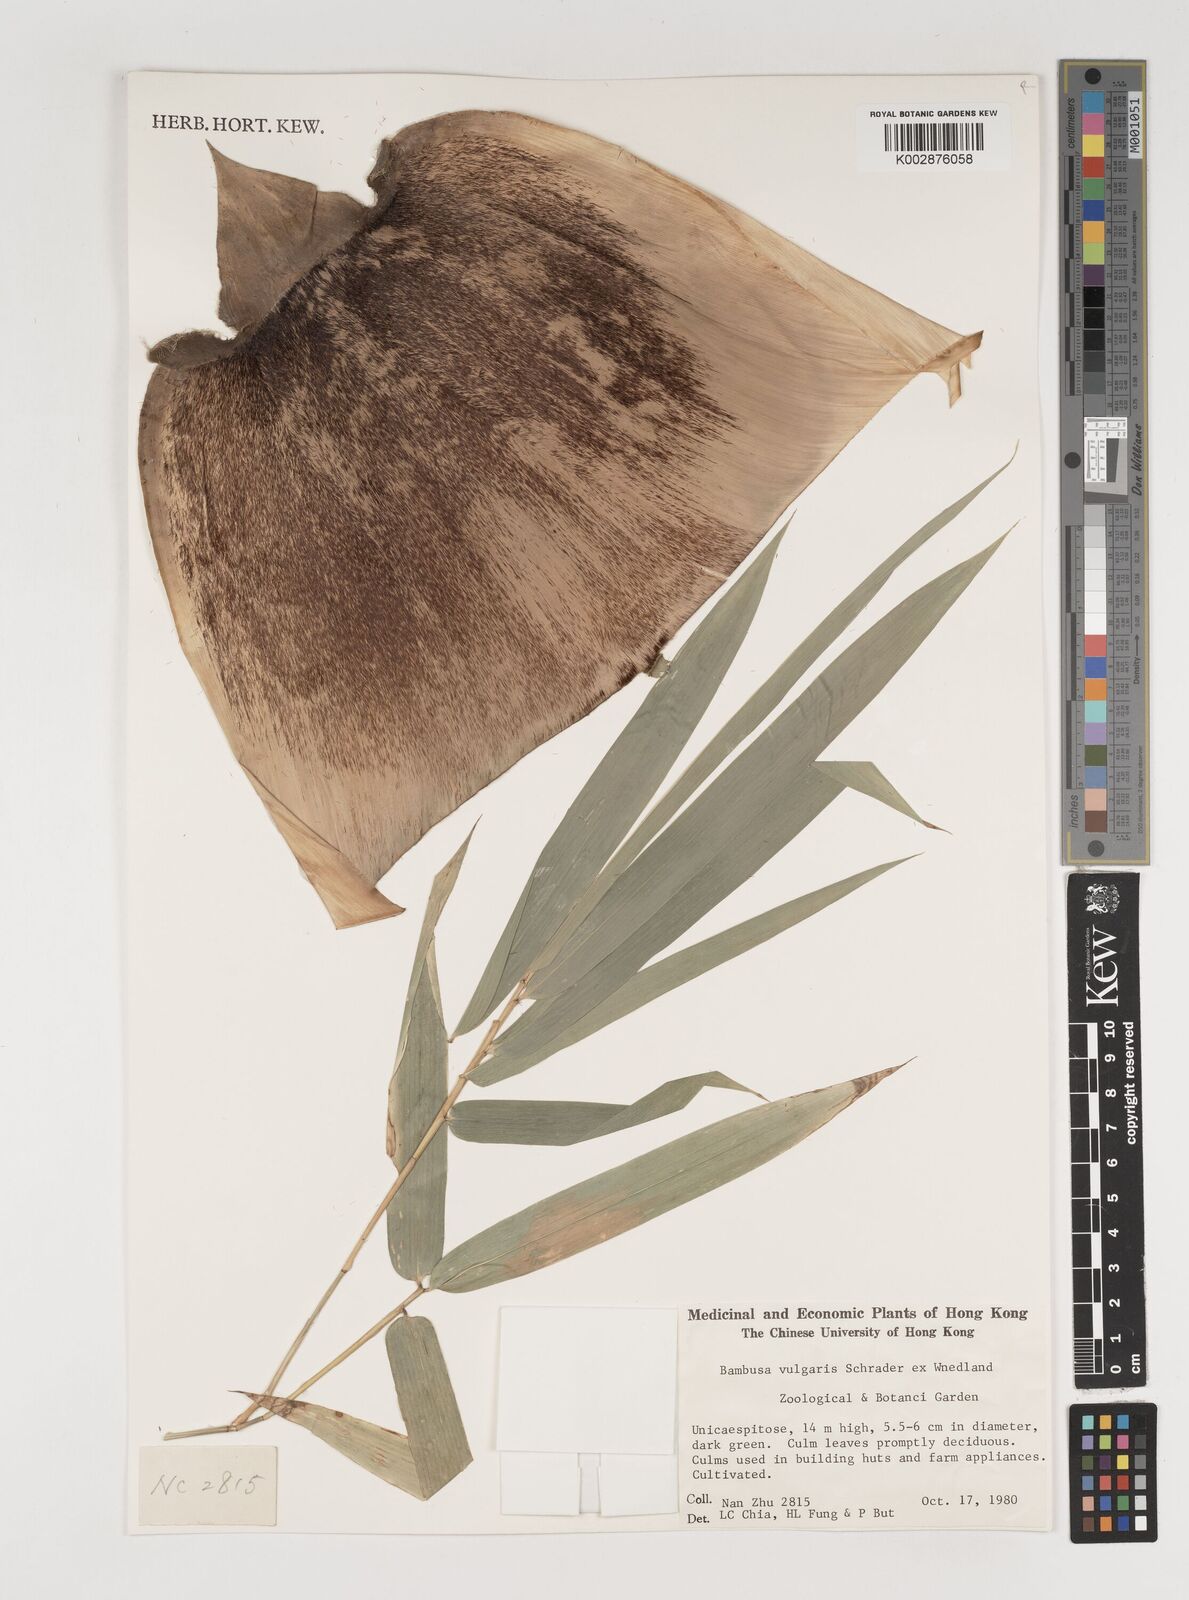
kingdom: Plantae
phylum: Tracheophyta
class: Liliopsida
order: Poales
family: Poaceae
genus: Bambusa
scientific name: Bambusa balcooa
